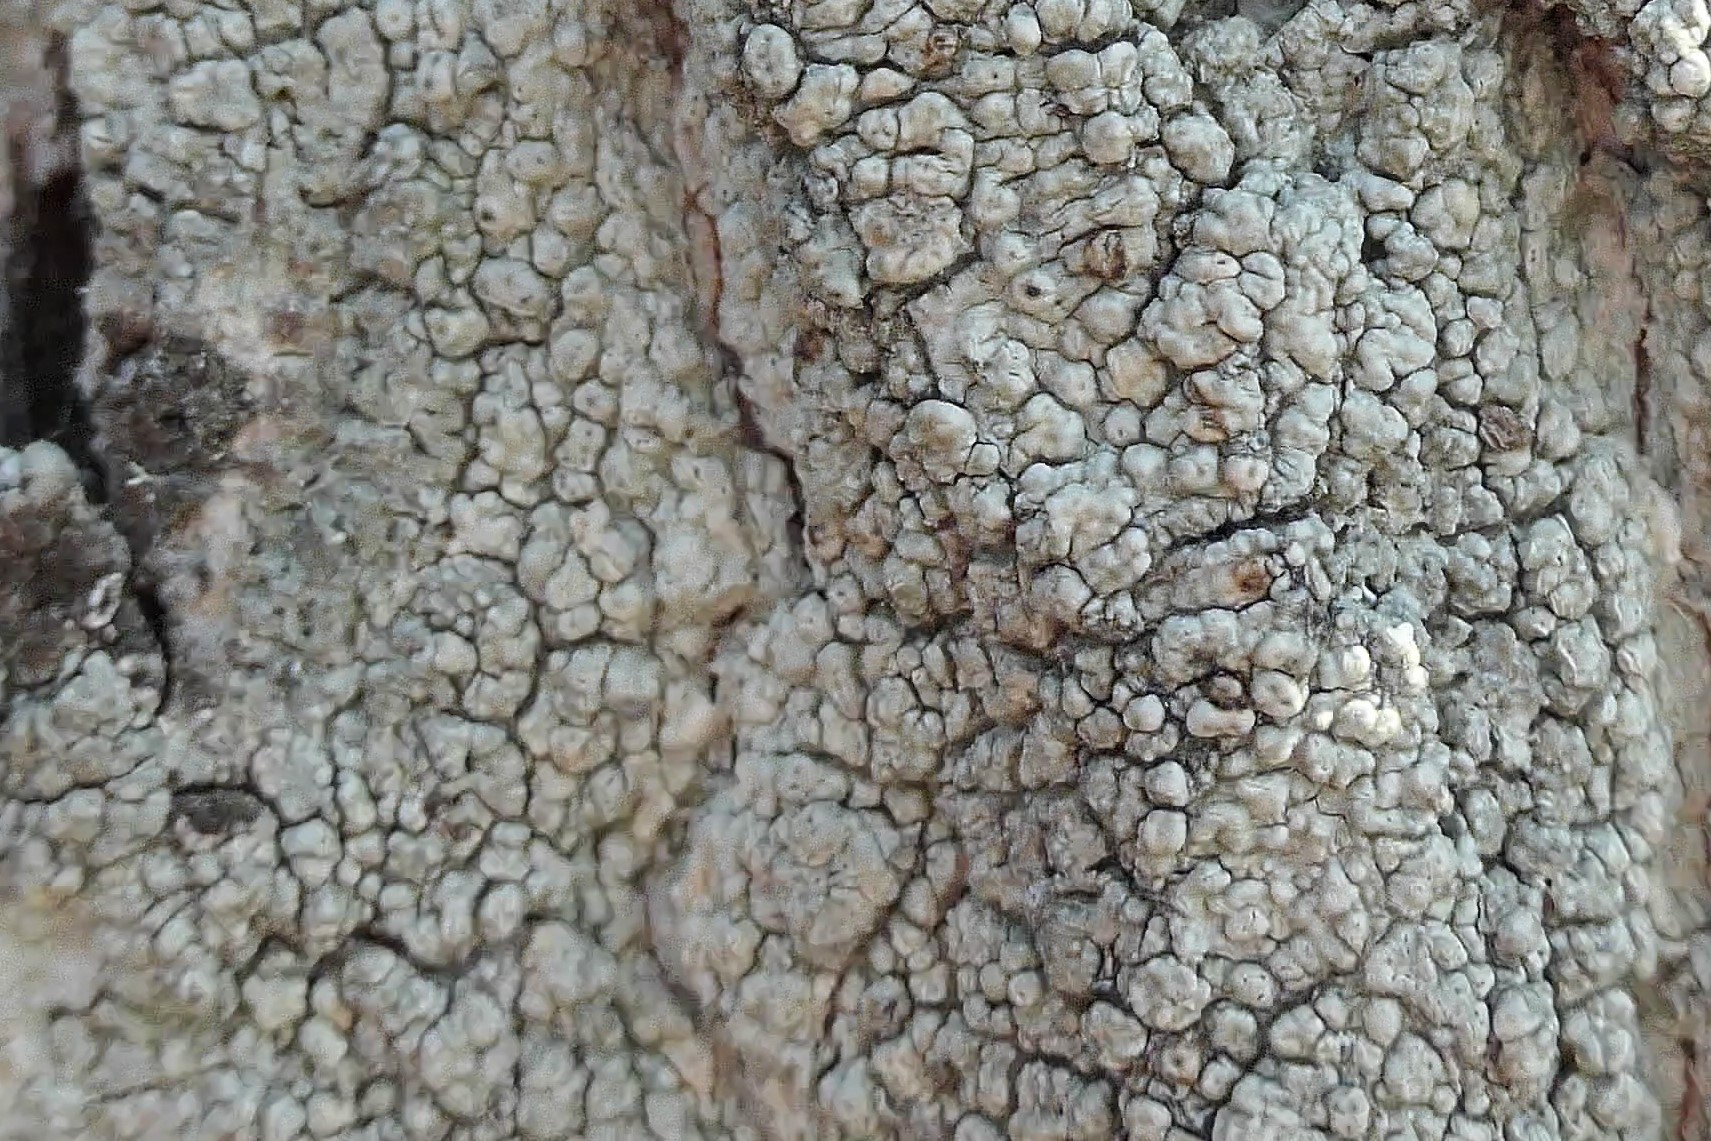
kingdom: Fungi
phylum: Ascomycota
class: Lecanoromycetes
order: Pertusariales
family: Pertusariaceae
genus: Pertusaria
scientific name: Pertusaria pertusa
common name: almindelig prikvortelav
